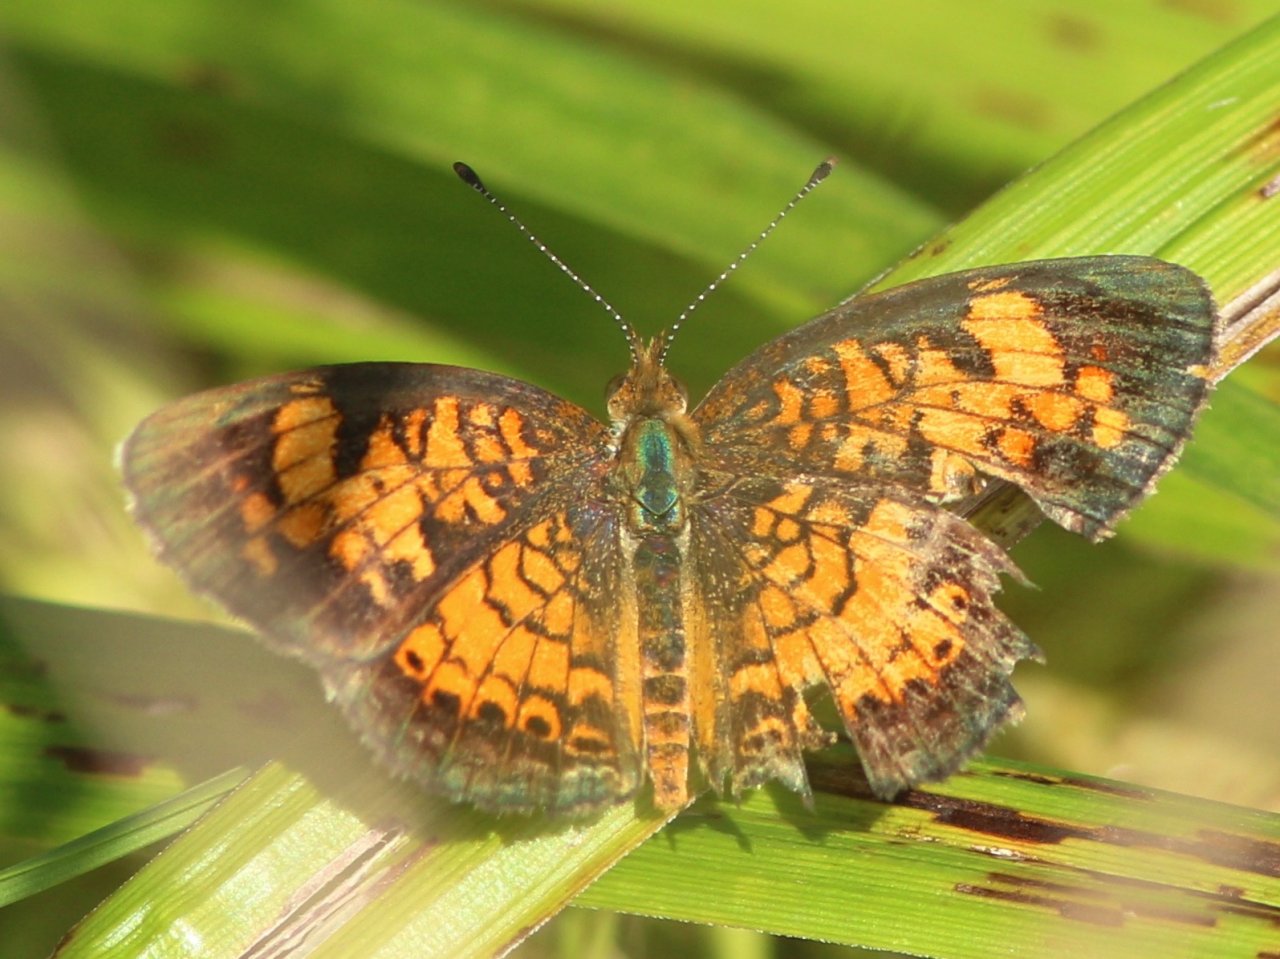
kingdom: Animalia
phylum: Arthropoda
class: Insecta
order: Lepidoptera
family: Nymphalidae
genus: Phyciodes
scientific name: Phyciodes tharos
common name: Pearl Crescent
